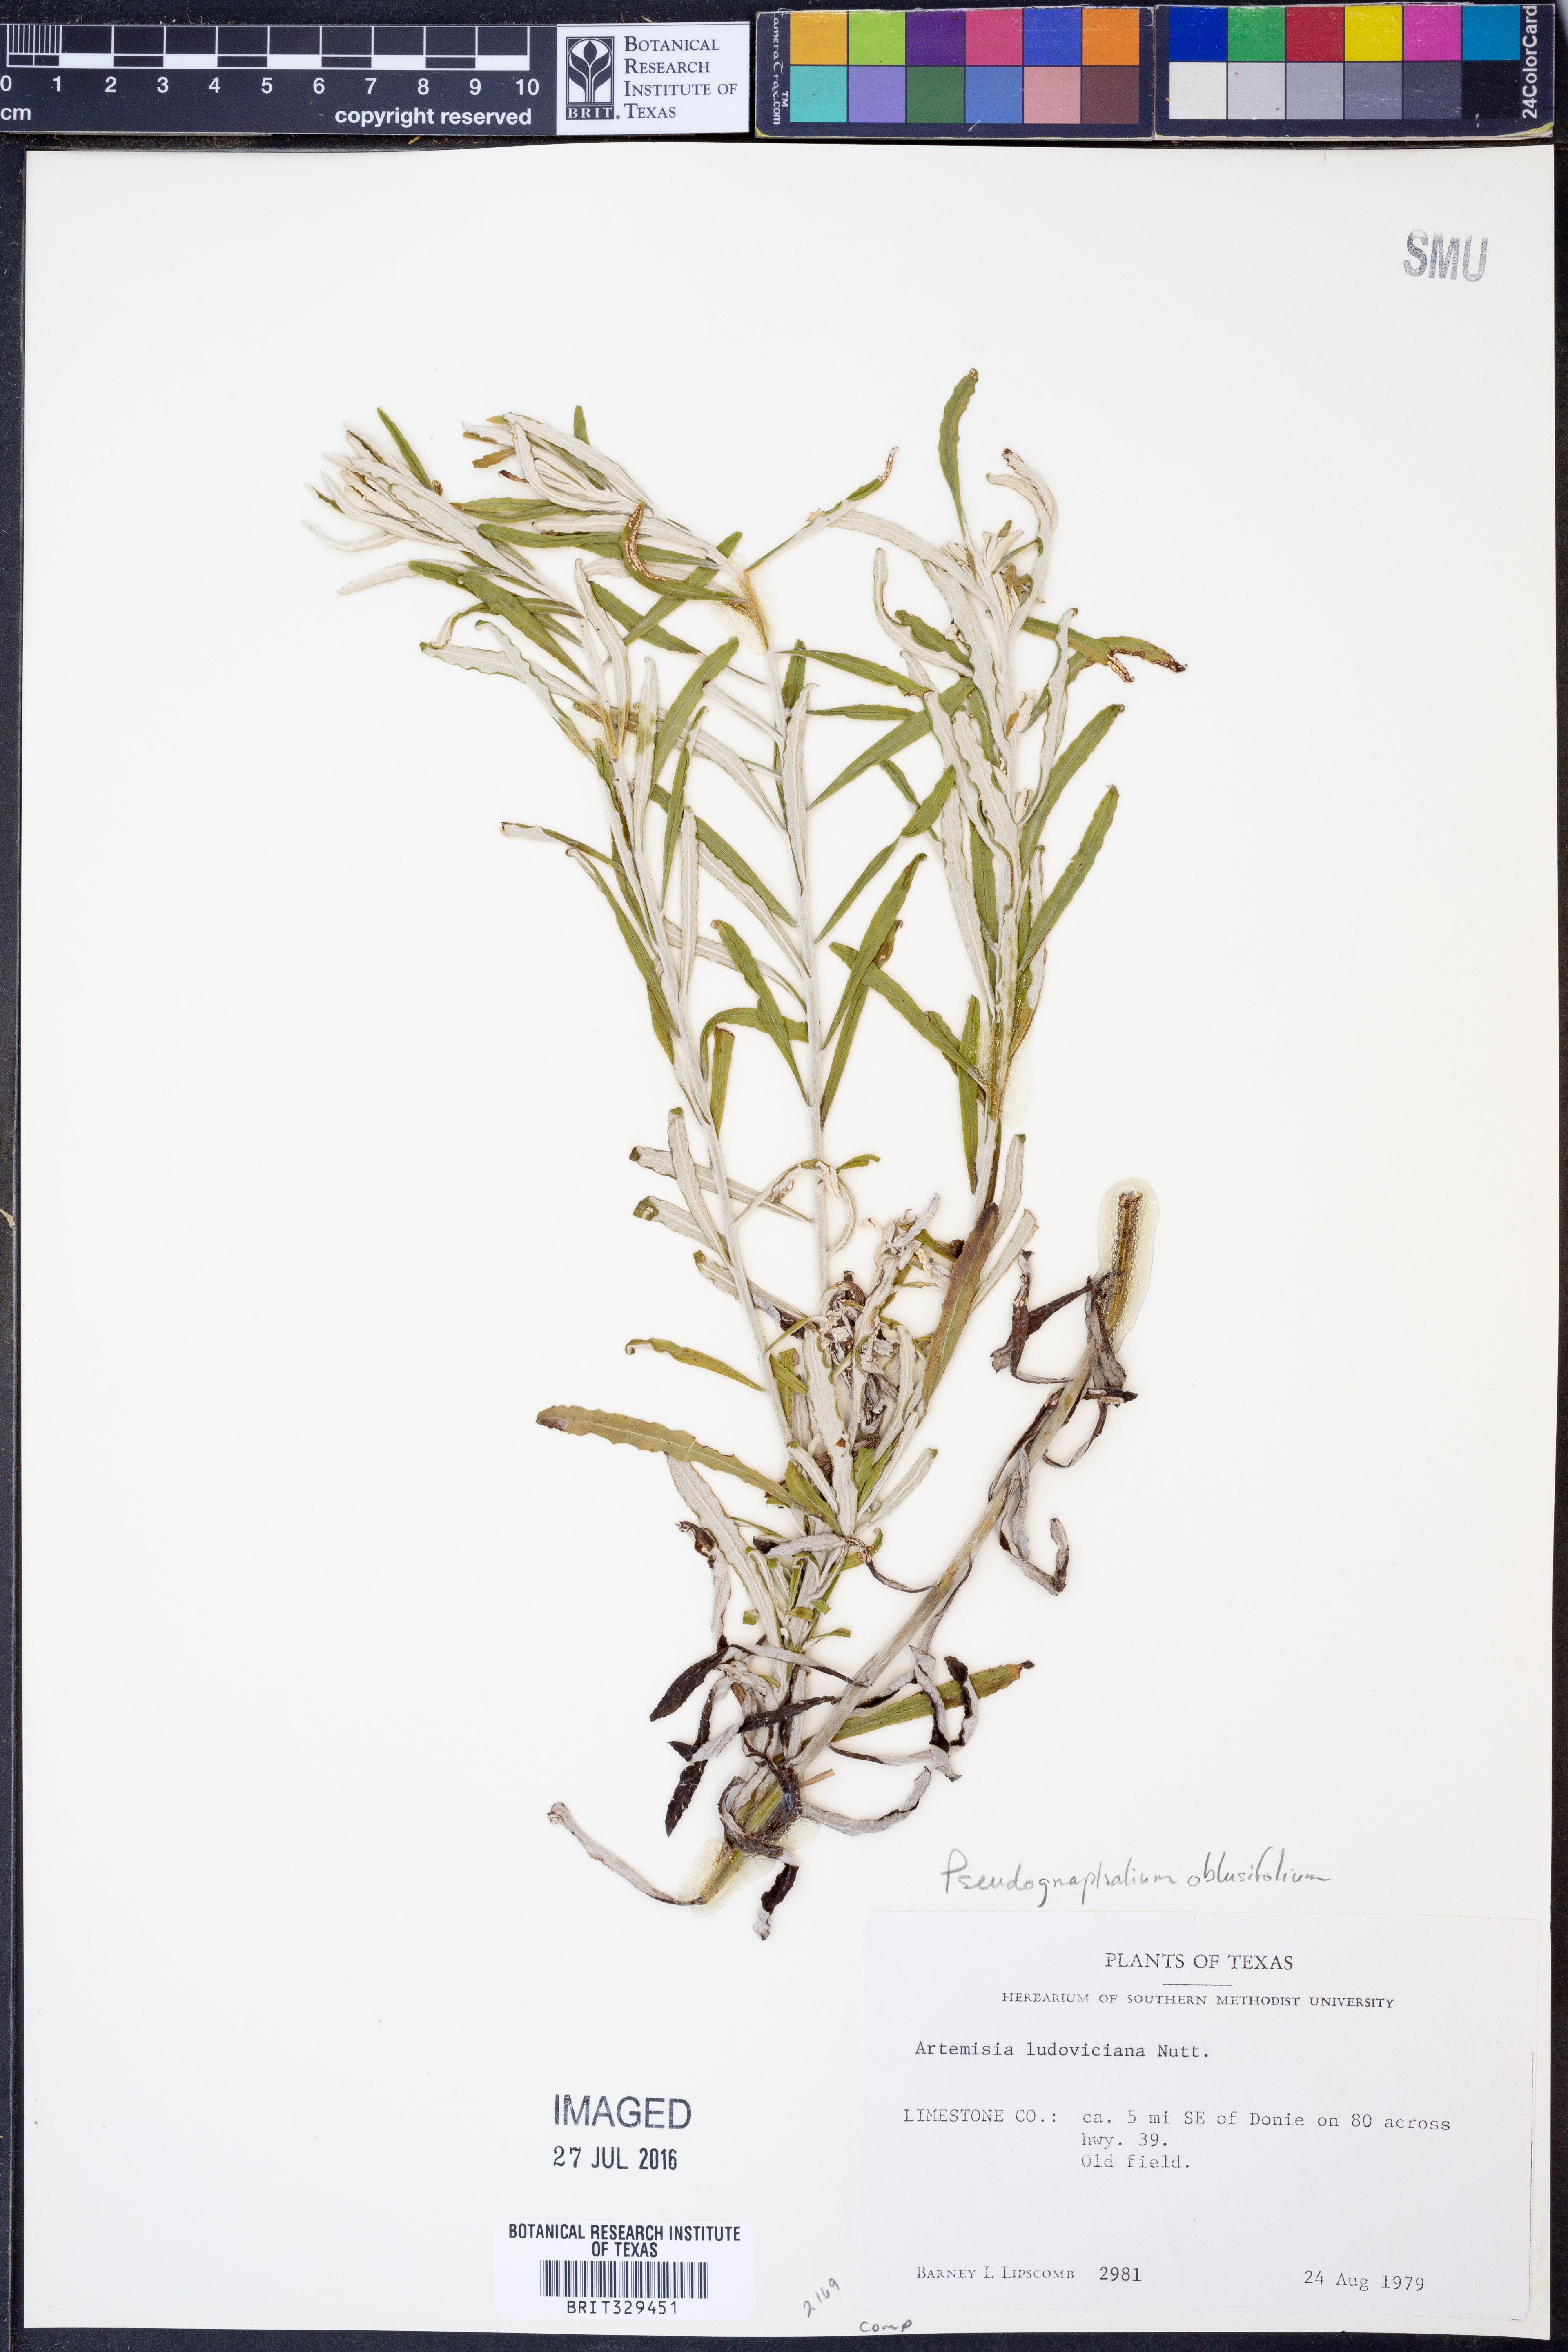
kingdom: Plantae
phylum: Tracheophyta
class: Magnoliopsida
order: Asterales
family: Asteraceae
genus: Pseudognaphalium
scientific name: Pseudognaphalium obtusifolium
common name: Eastern rabbit-tobacco
